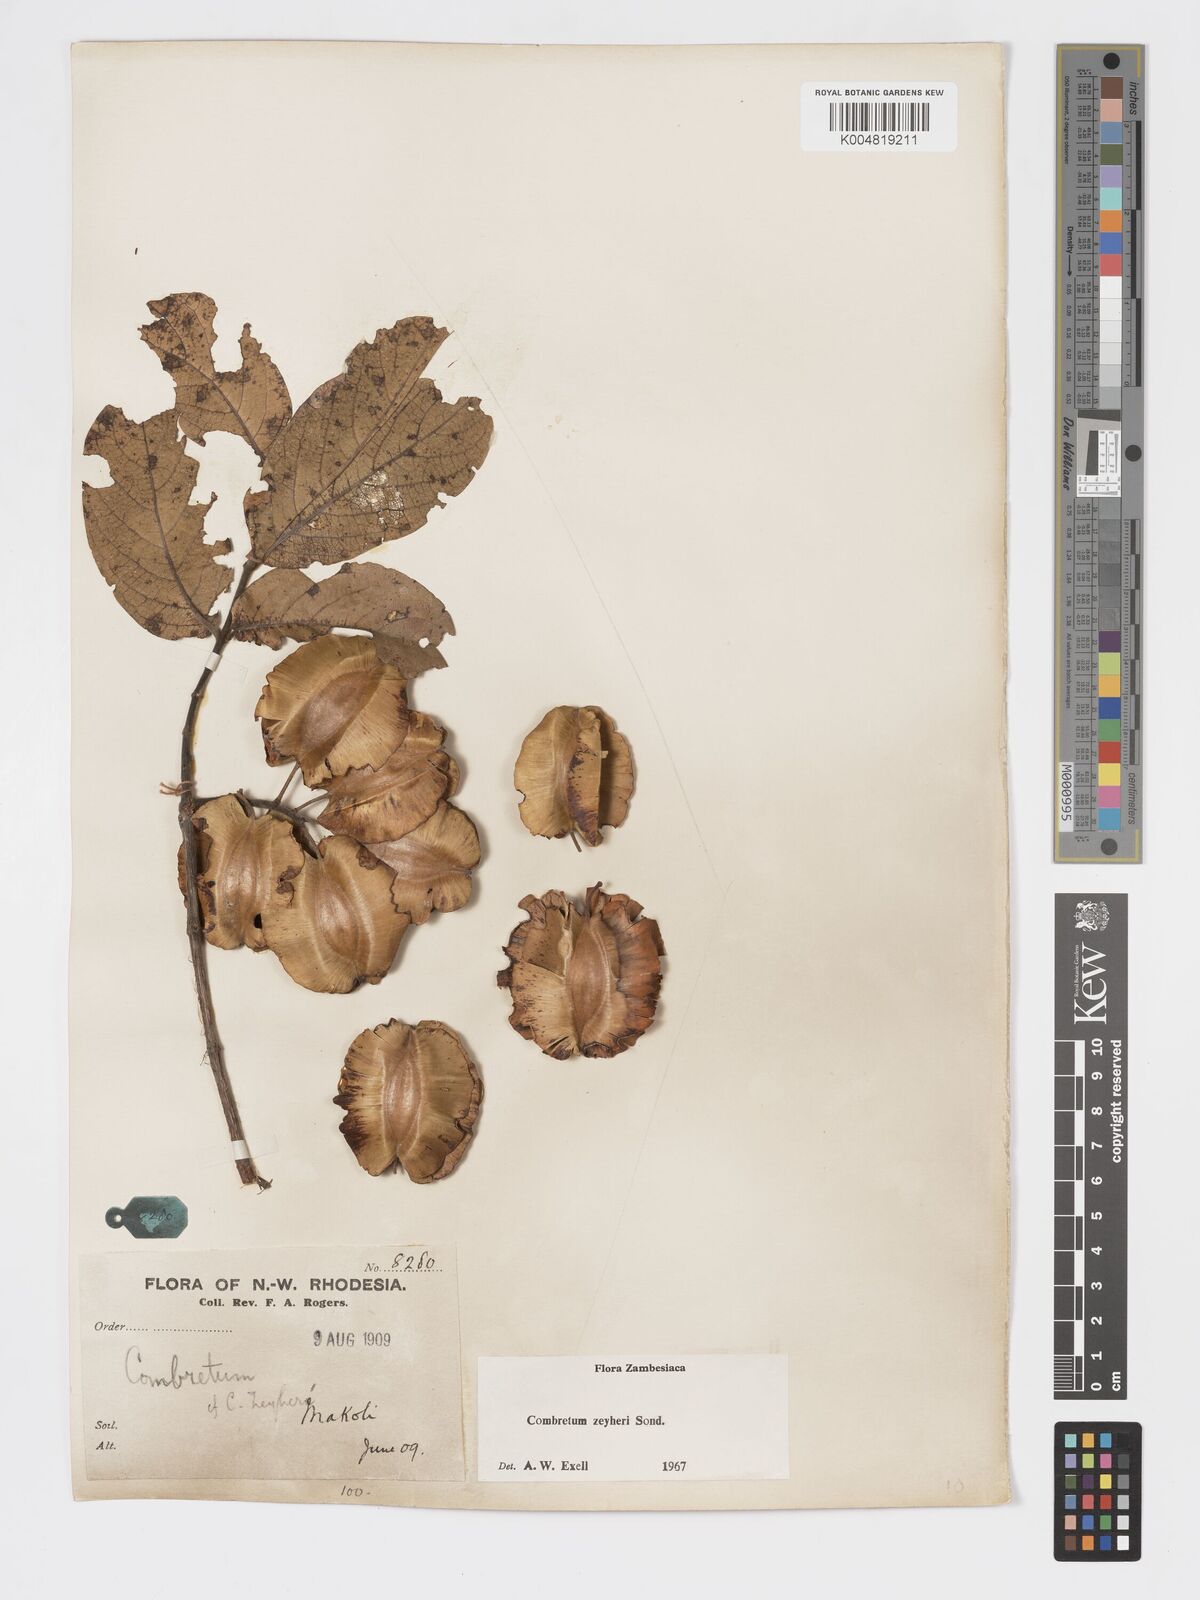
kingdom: Plantae
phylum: Tracheophyta
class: Magnoliopsida
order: Myrtales
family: Combretaceae
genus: Combretum
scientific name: Combretum zeyheri
